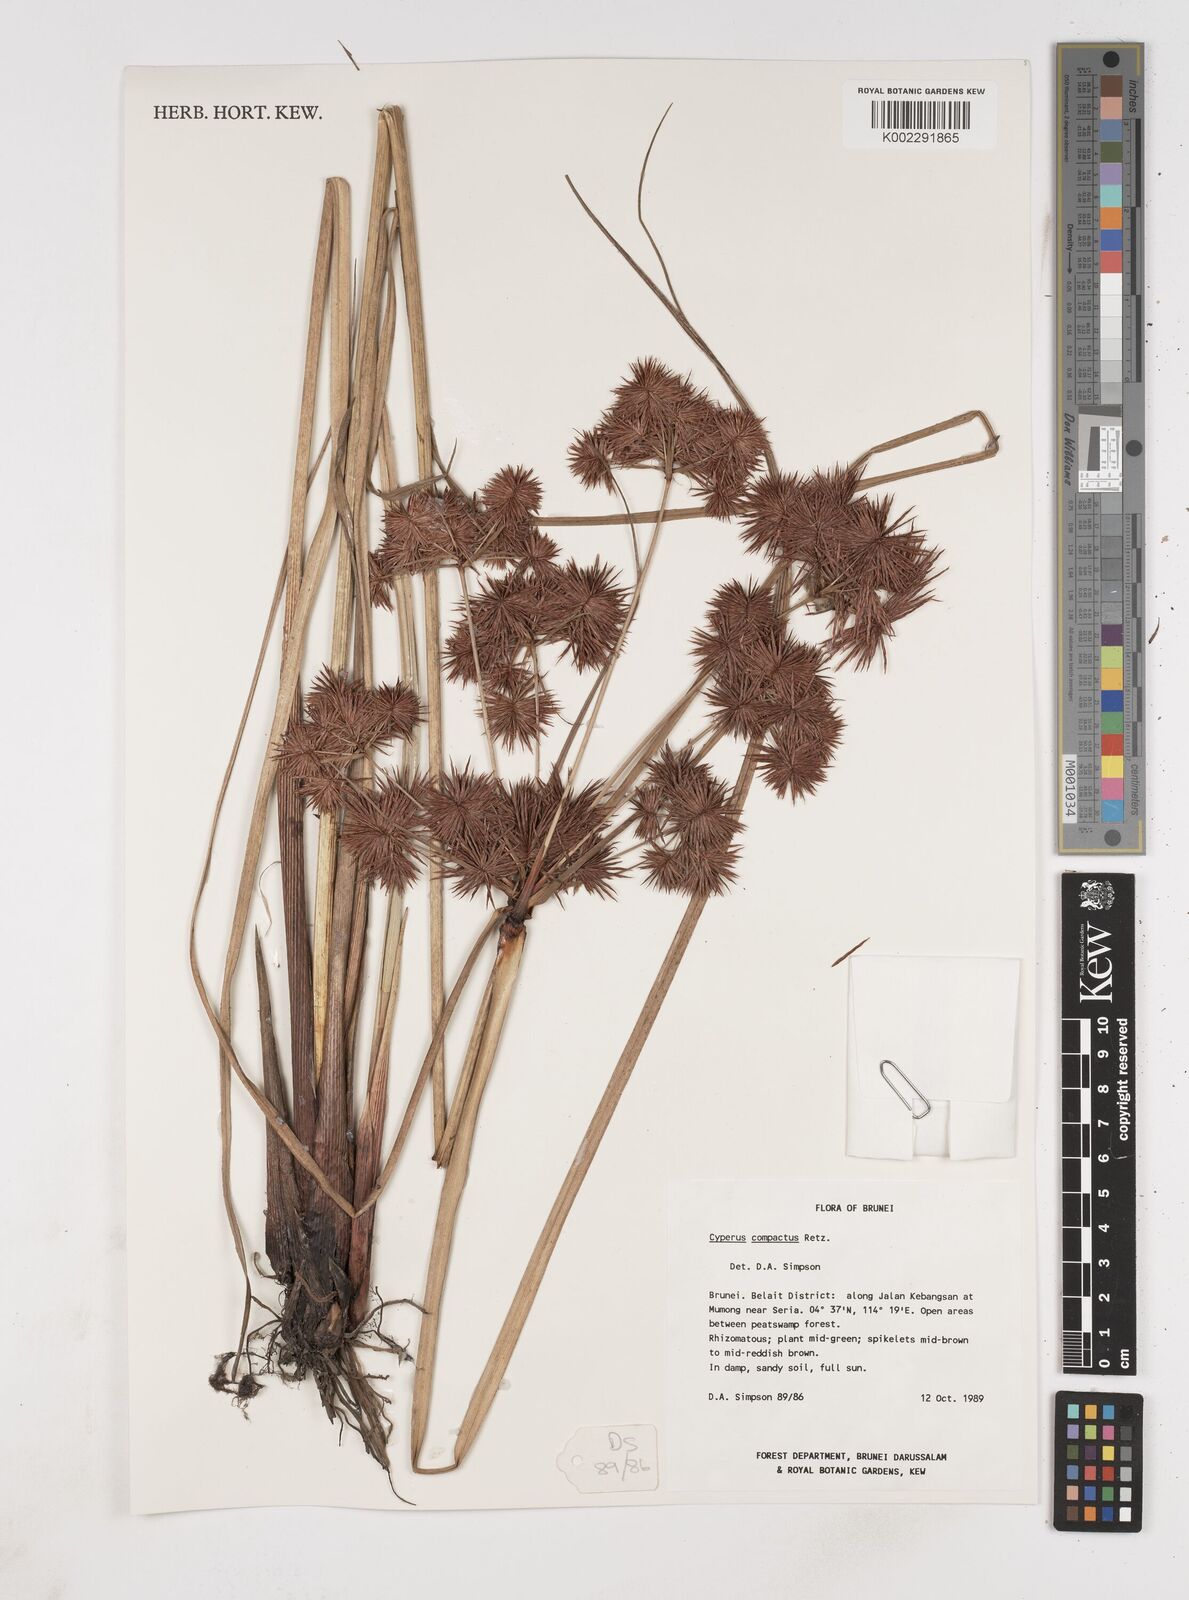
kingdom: Plantae
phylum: Tracheophyta
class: Liliopsida
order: Poales
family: Cyperaceae
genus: Cyperus
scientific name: Cyperus compactus
